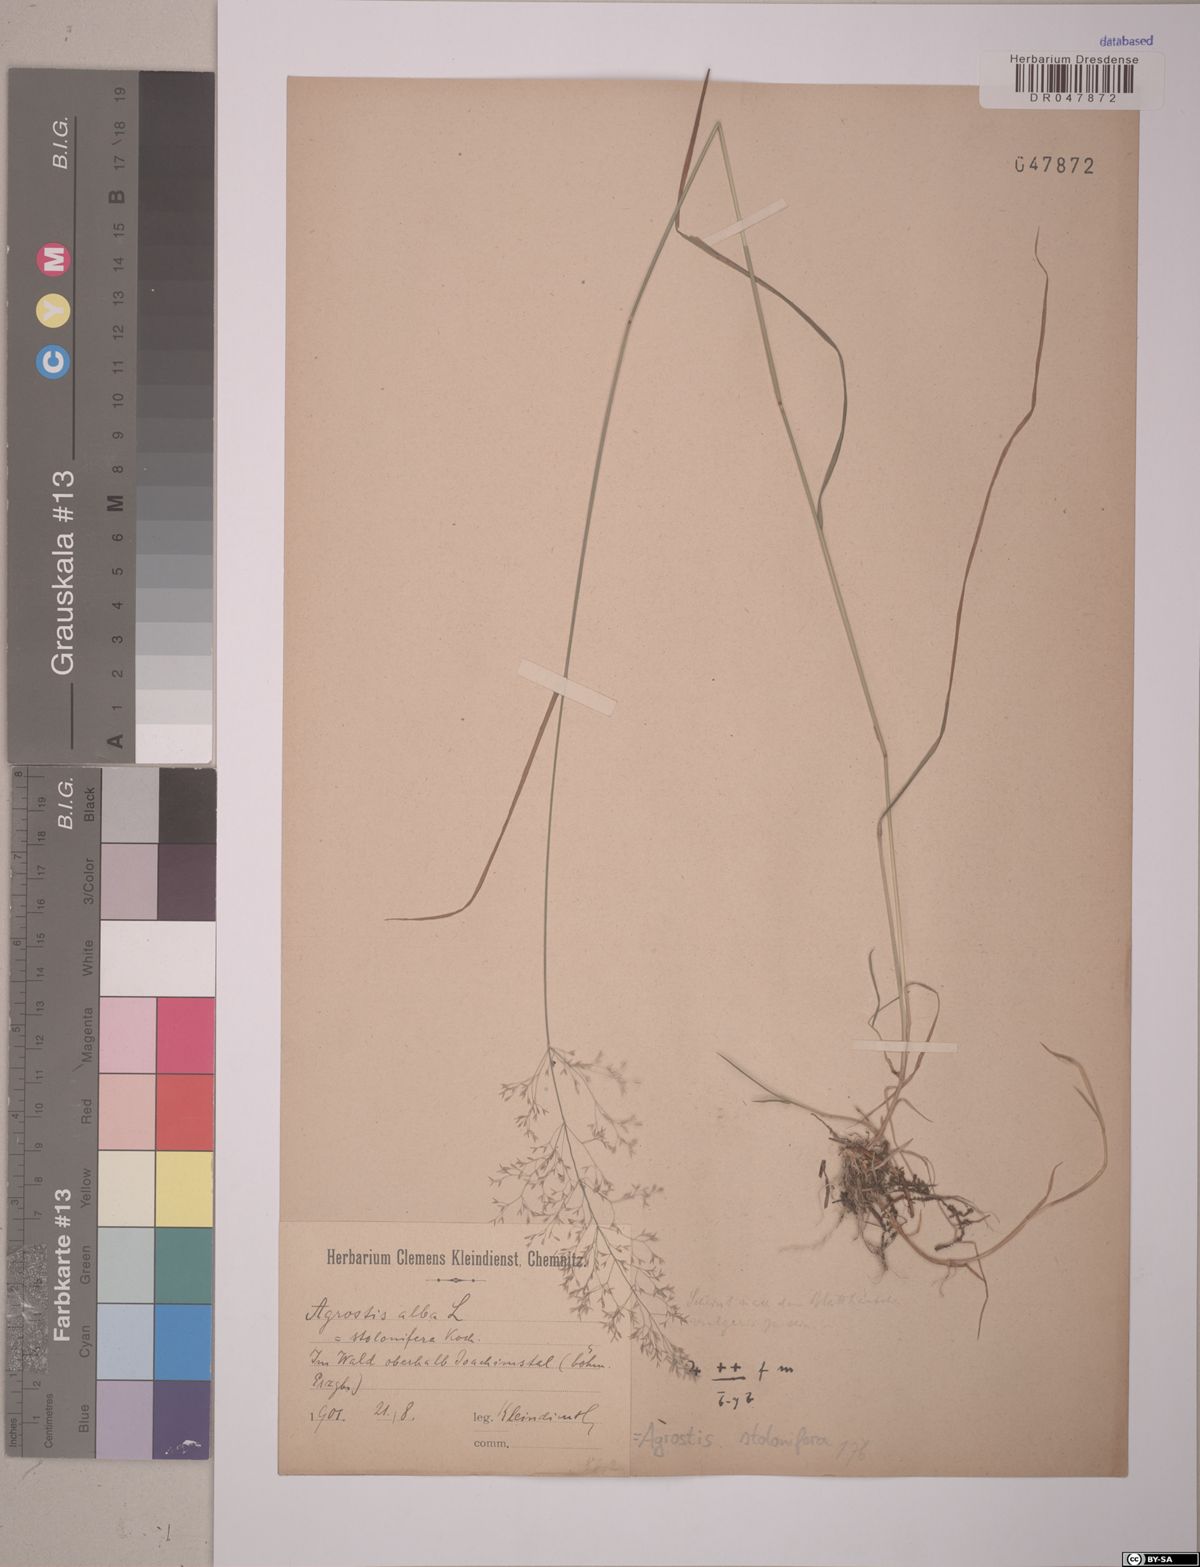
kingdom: Plantae
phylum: Tracheophyta
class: Liliopsida
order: Poales
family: Poaceae
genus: Agrostis
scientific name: Agrostis stolonifera
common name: Creeping bentgrass
